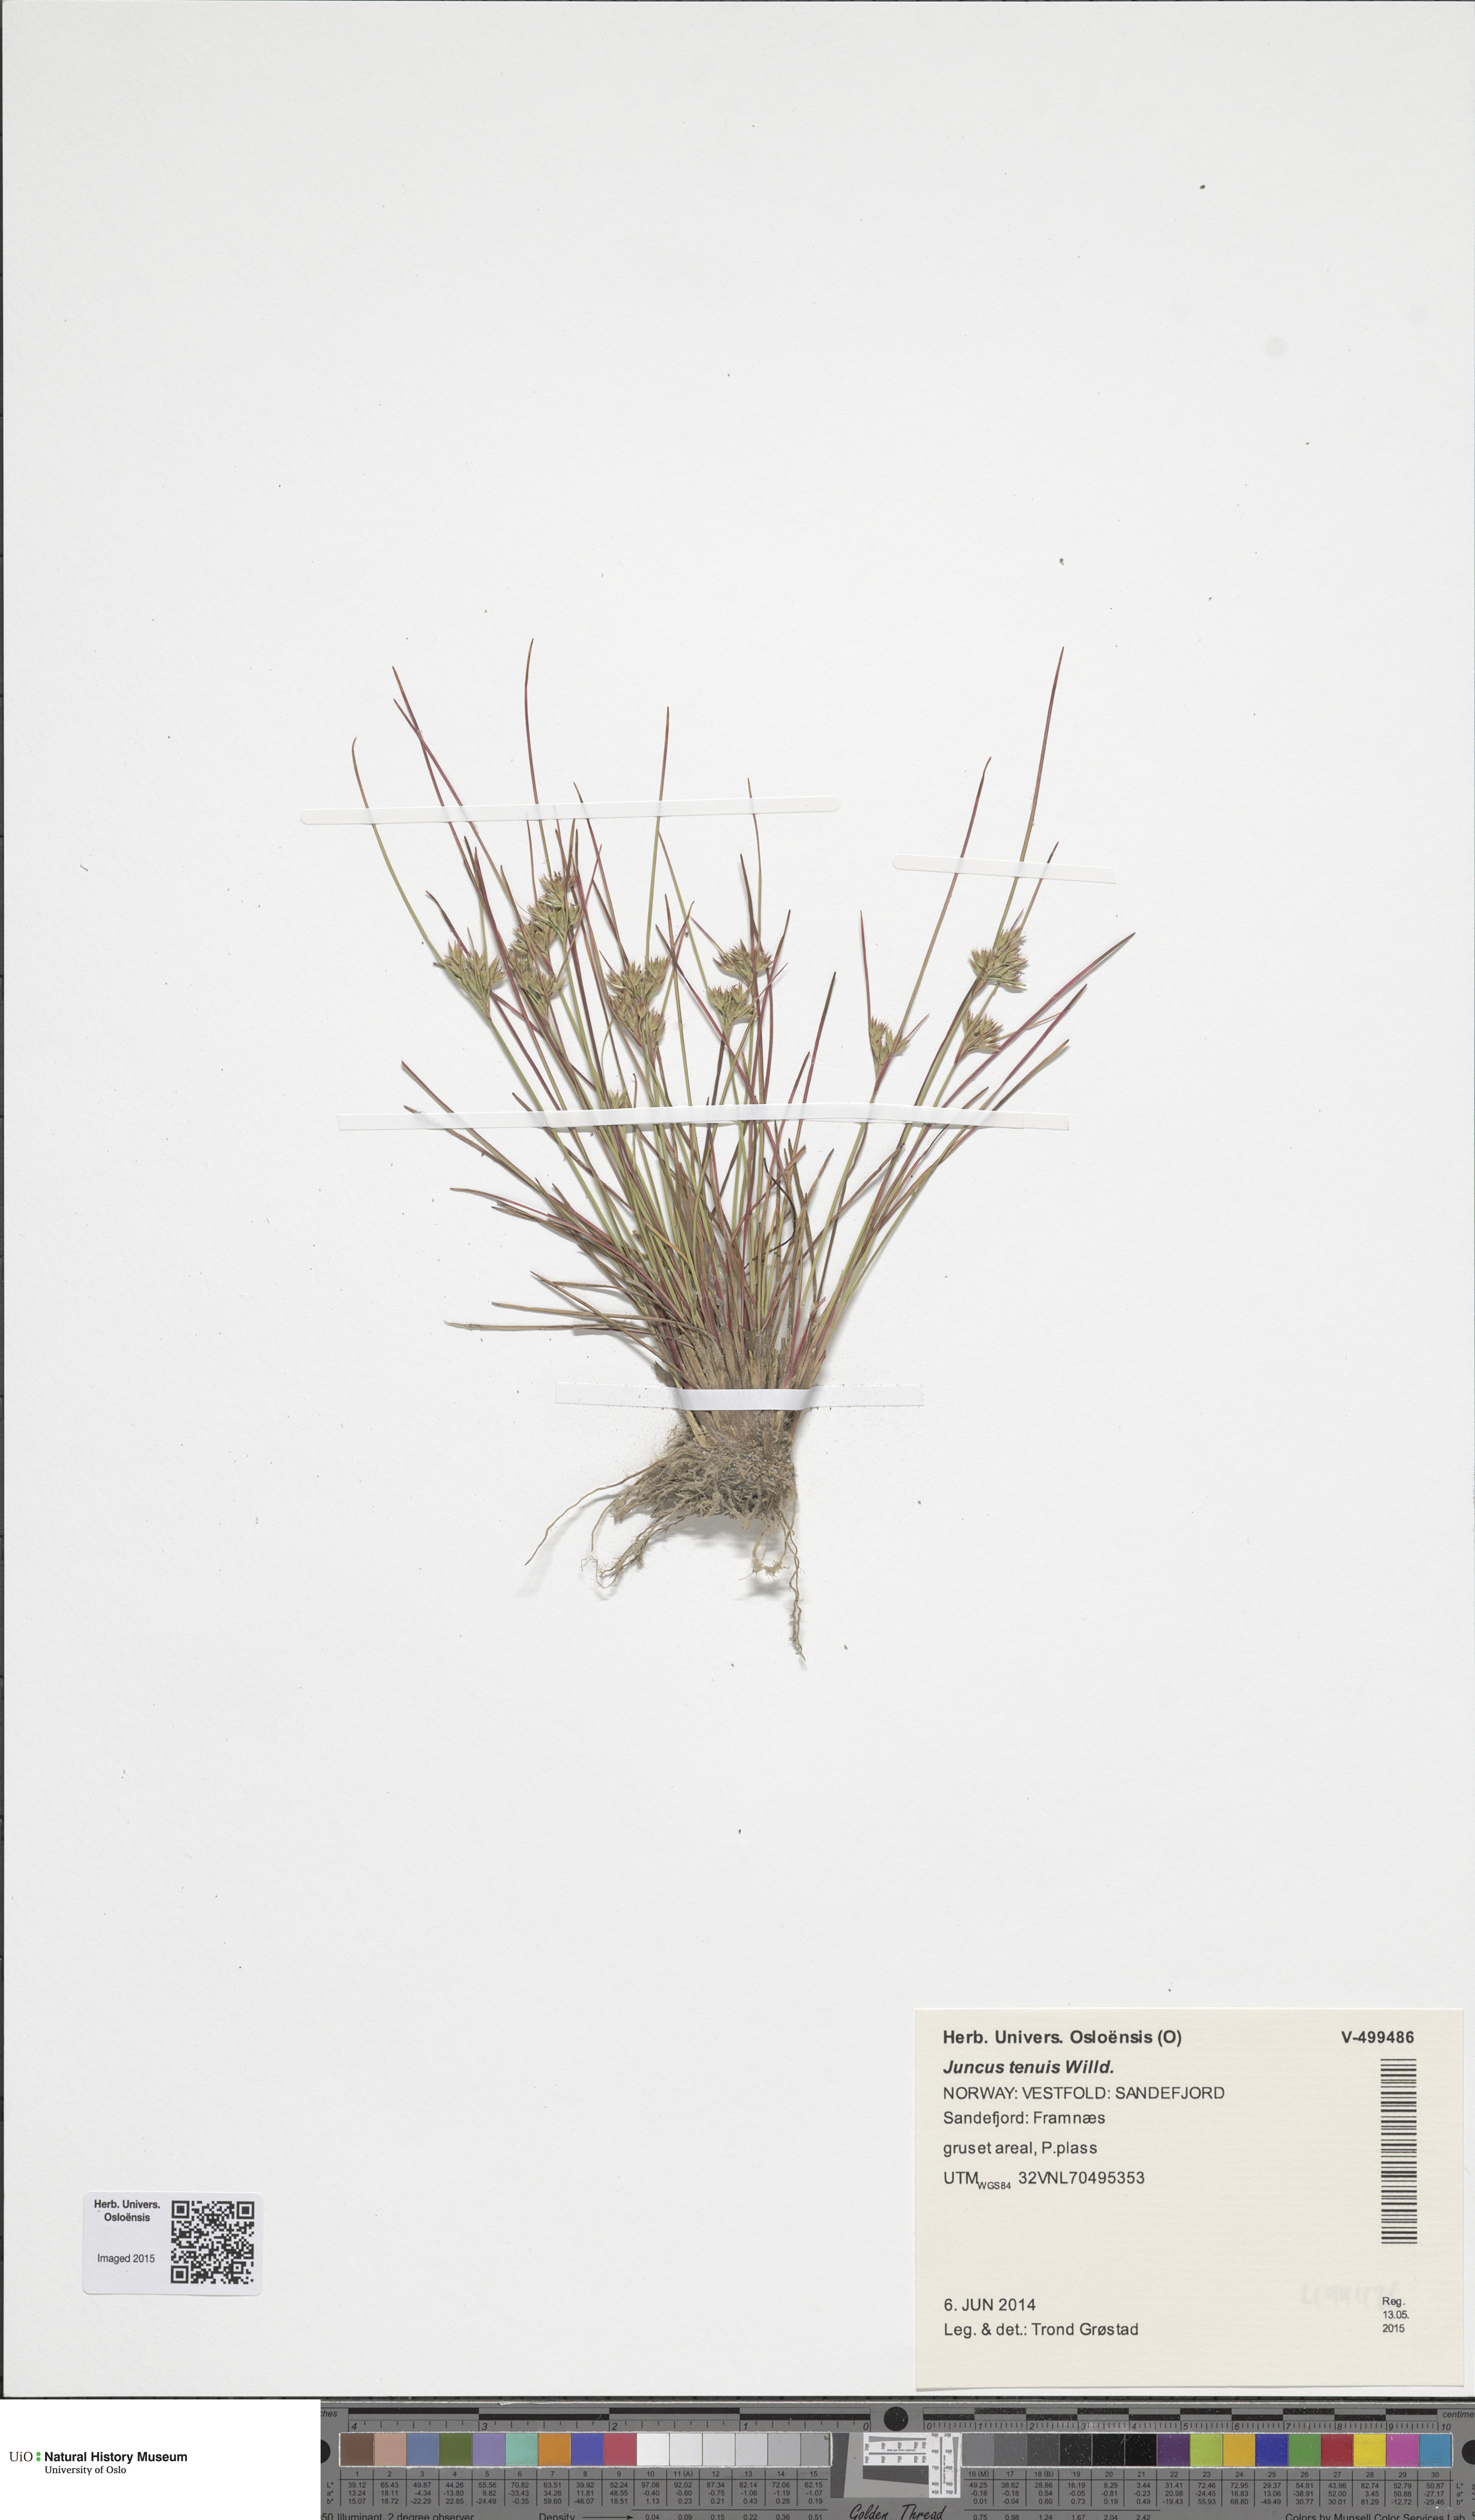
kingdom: Plantae
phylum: Tracheophyta
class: Liliopsida
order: Poales
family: Juncaceae
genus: Juncus
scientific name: Juncus tenuis
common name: Slender rush
